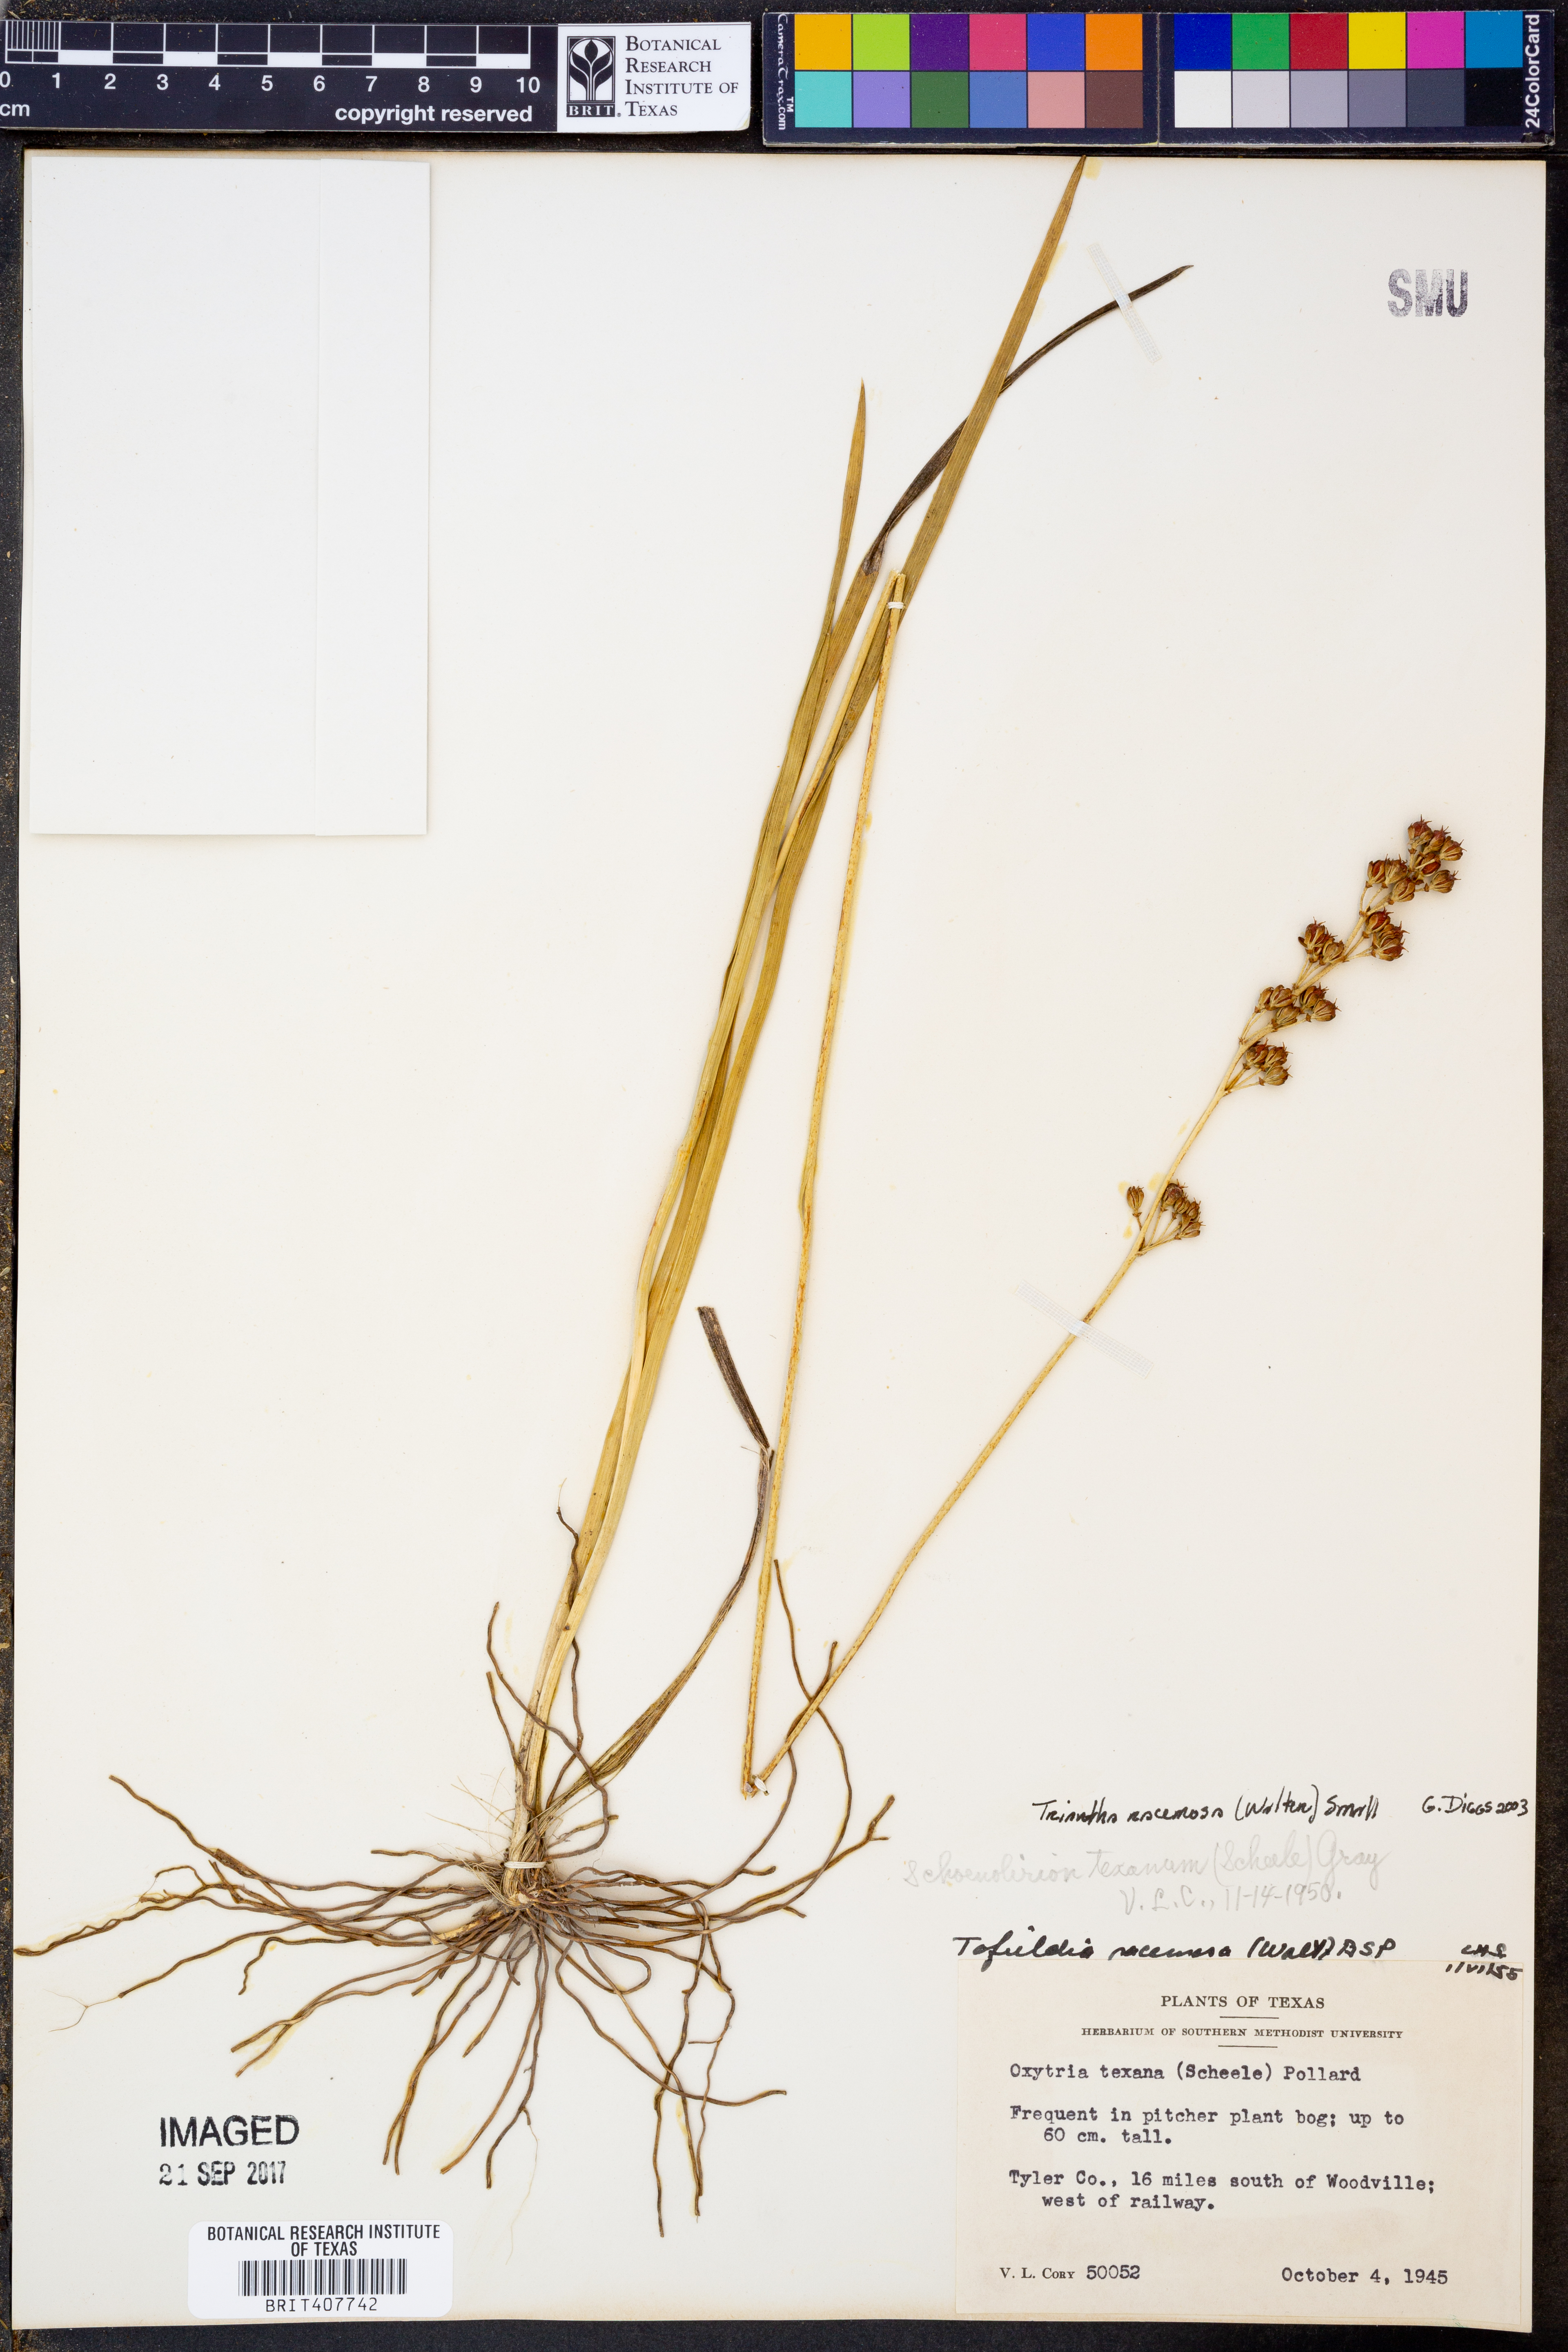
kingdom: Plantae
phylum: Tracheophyta
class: Liliopsida
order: Alismatales
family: Tofieldiaceae
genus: Triantha
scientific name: Triantha racemosa
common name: Coastal false asphodel
